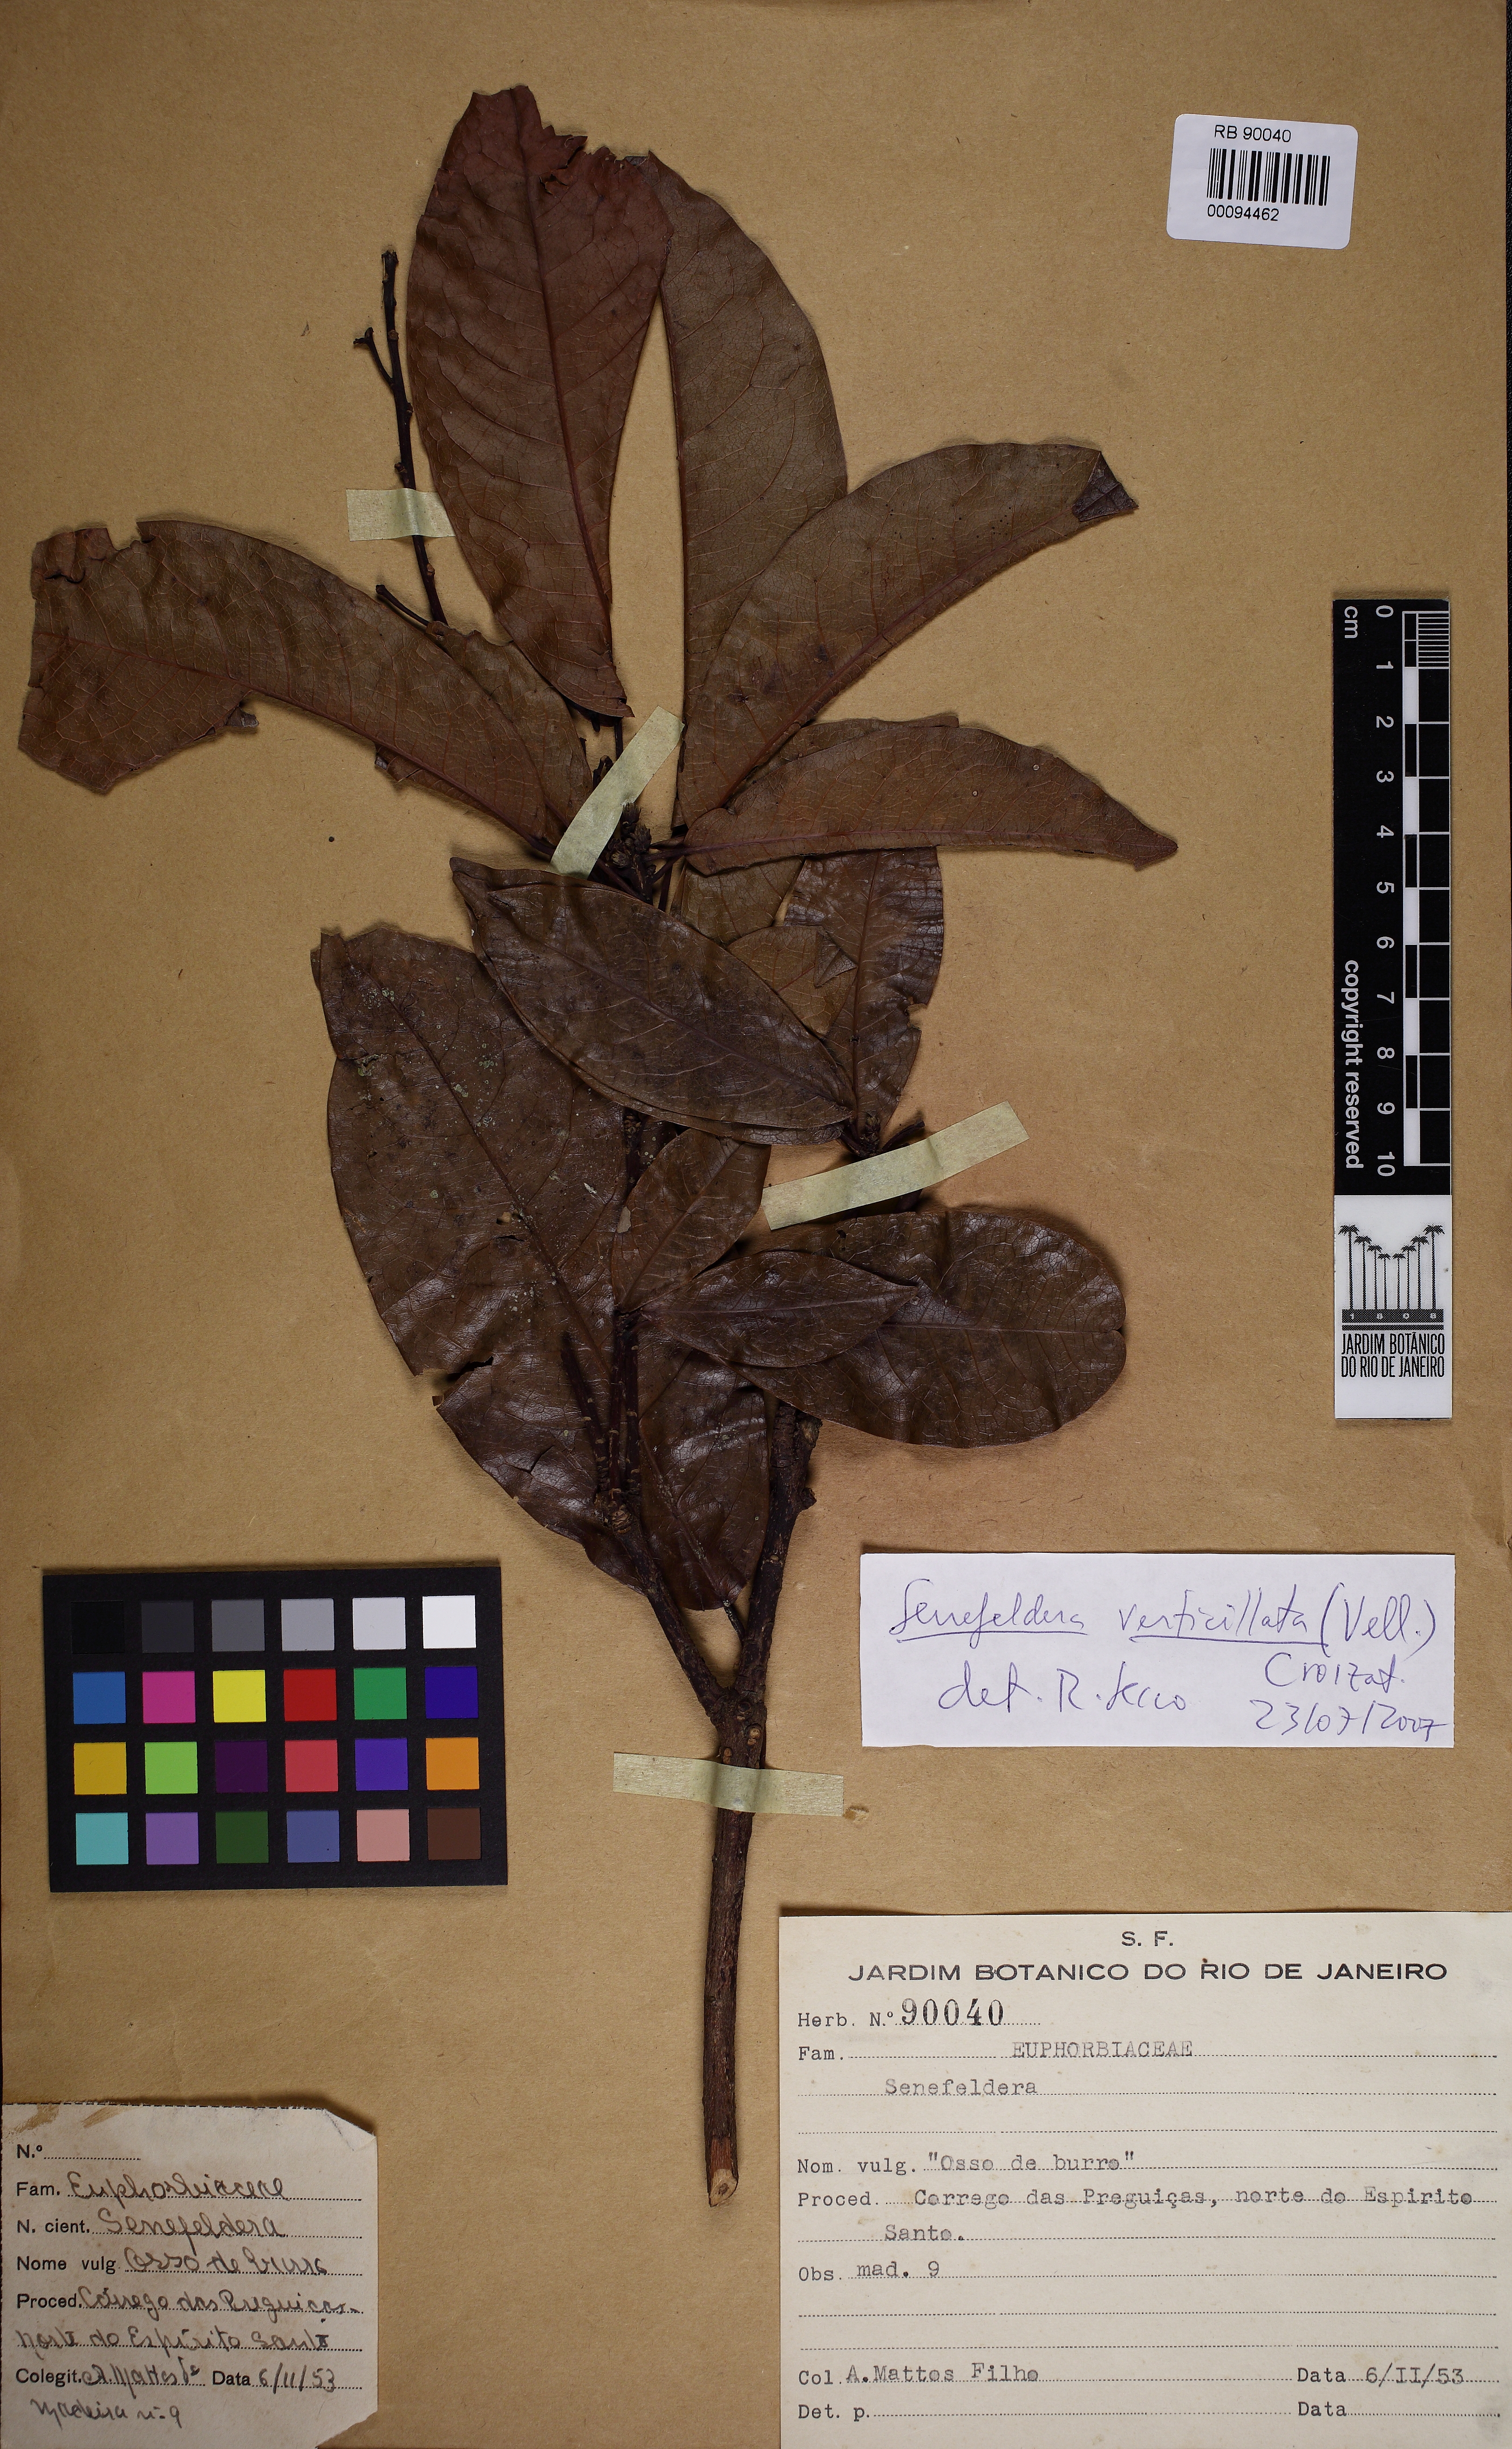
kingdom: Plantae
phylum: Tracheophyta
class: Magnoliopsida
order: Malpighiales
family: Euphorbiaceae
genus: Senefeldera
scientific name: Senefeldera verticillata
